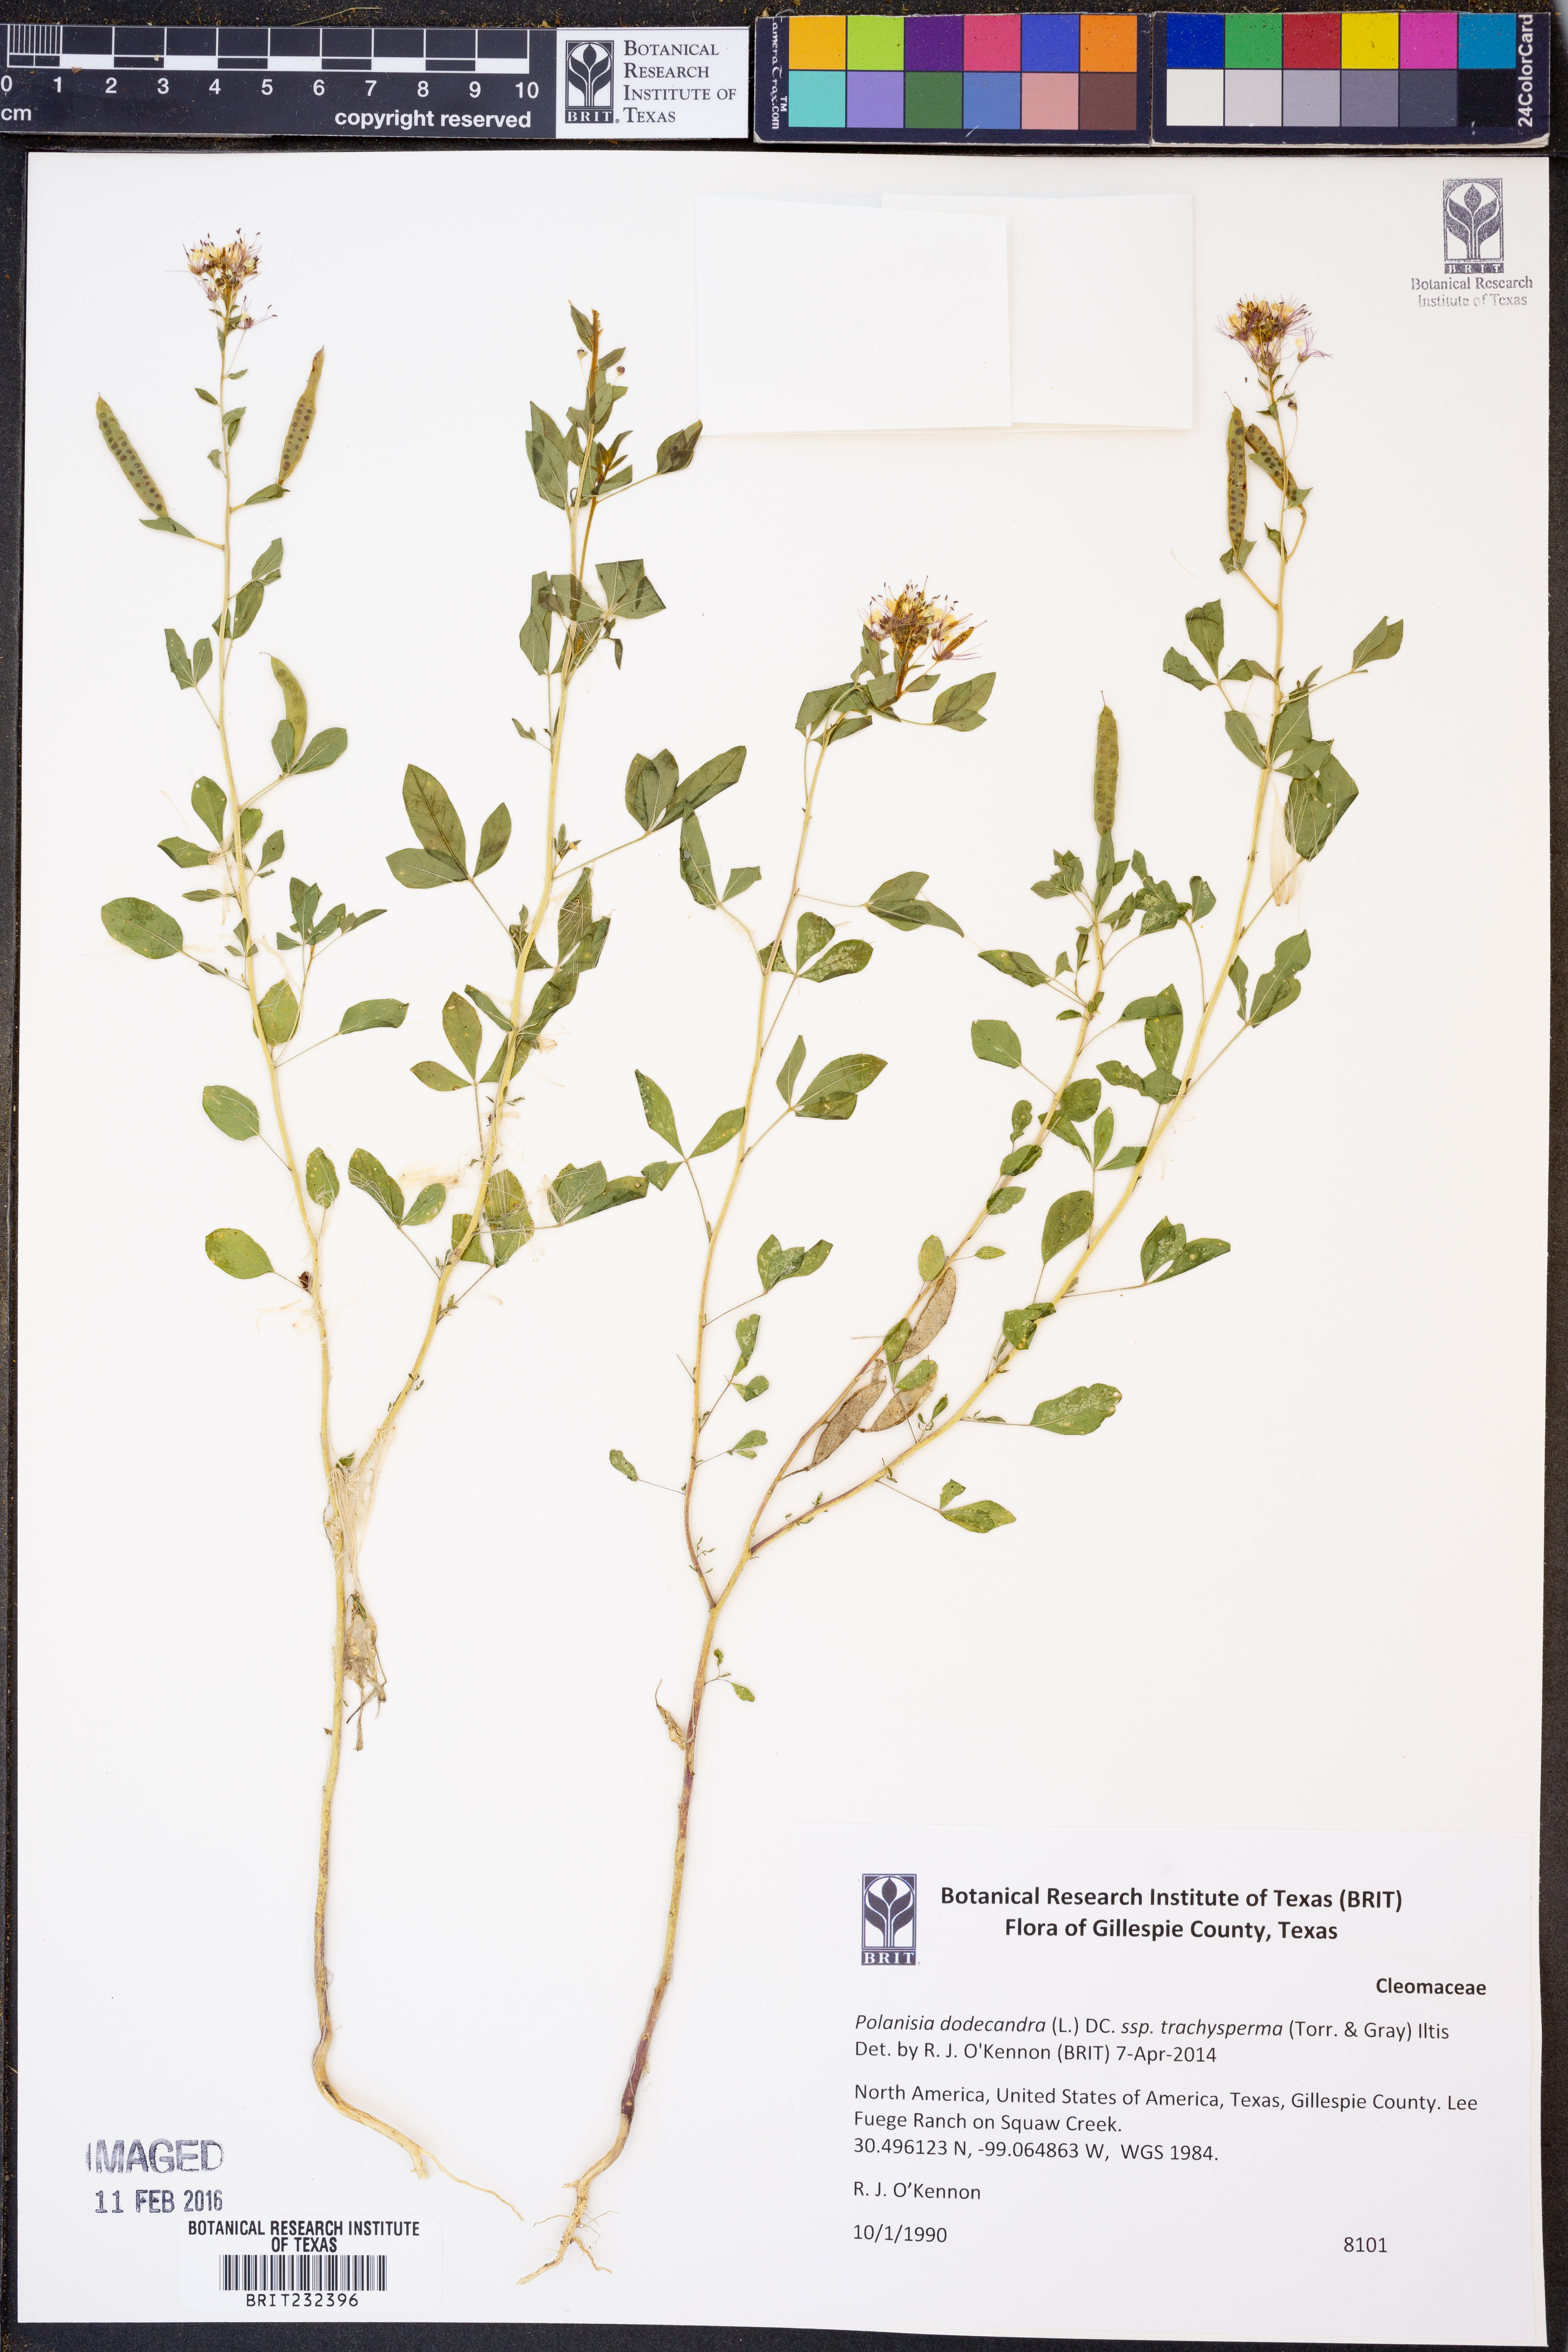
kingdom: Plantae
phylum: Tracheophyta
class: Magnoliopsida
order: Brassicales
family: Cleomaceae
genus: Polanisia
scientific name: Polanisia dodecandra
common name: Clammyweed
